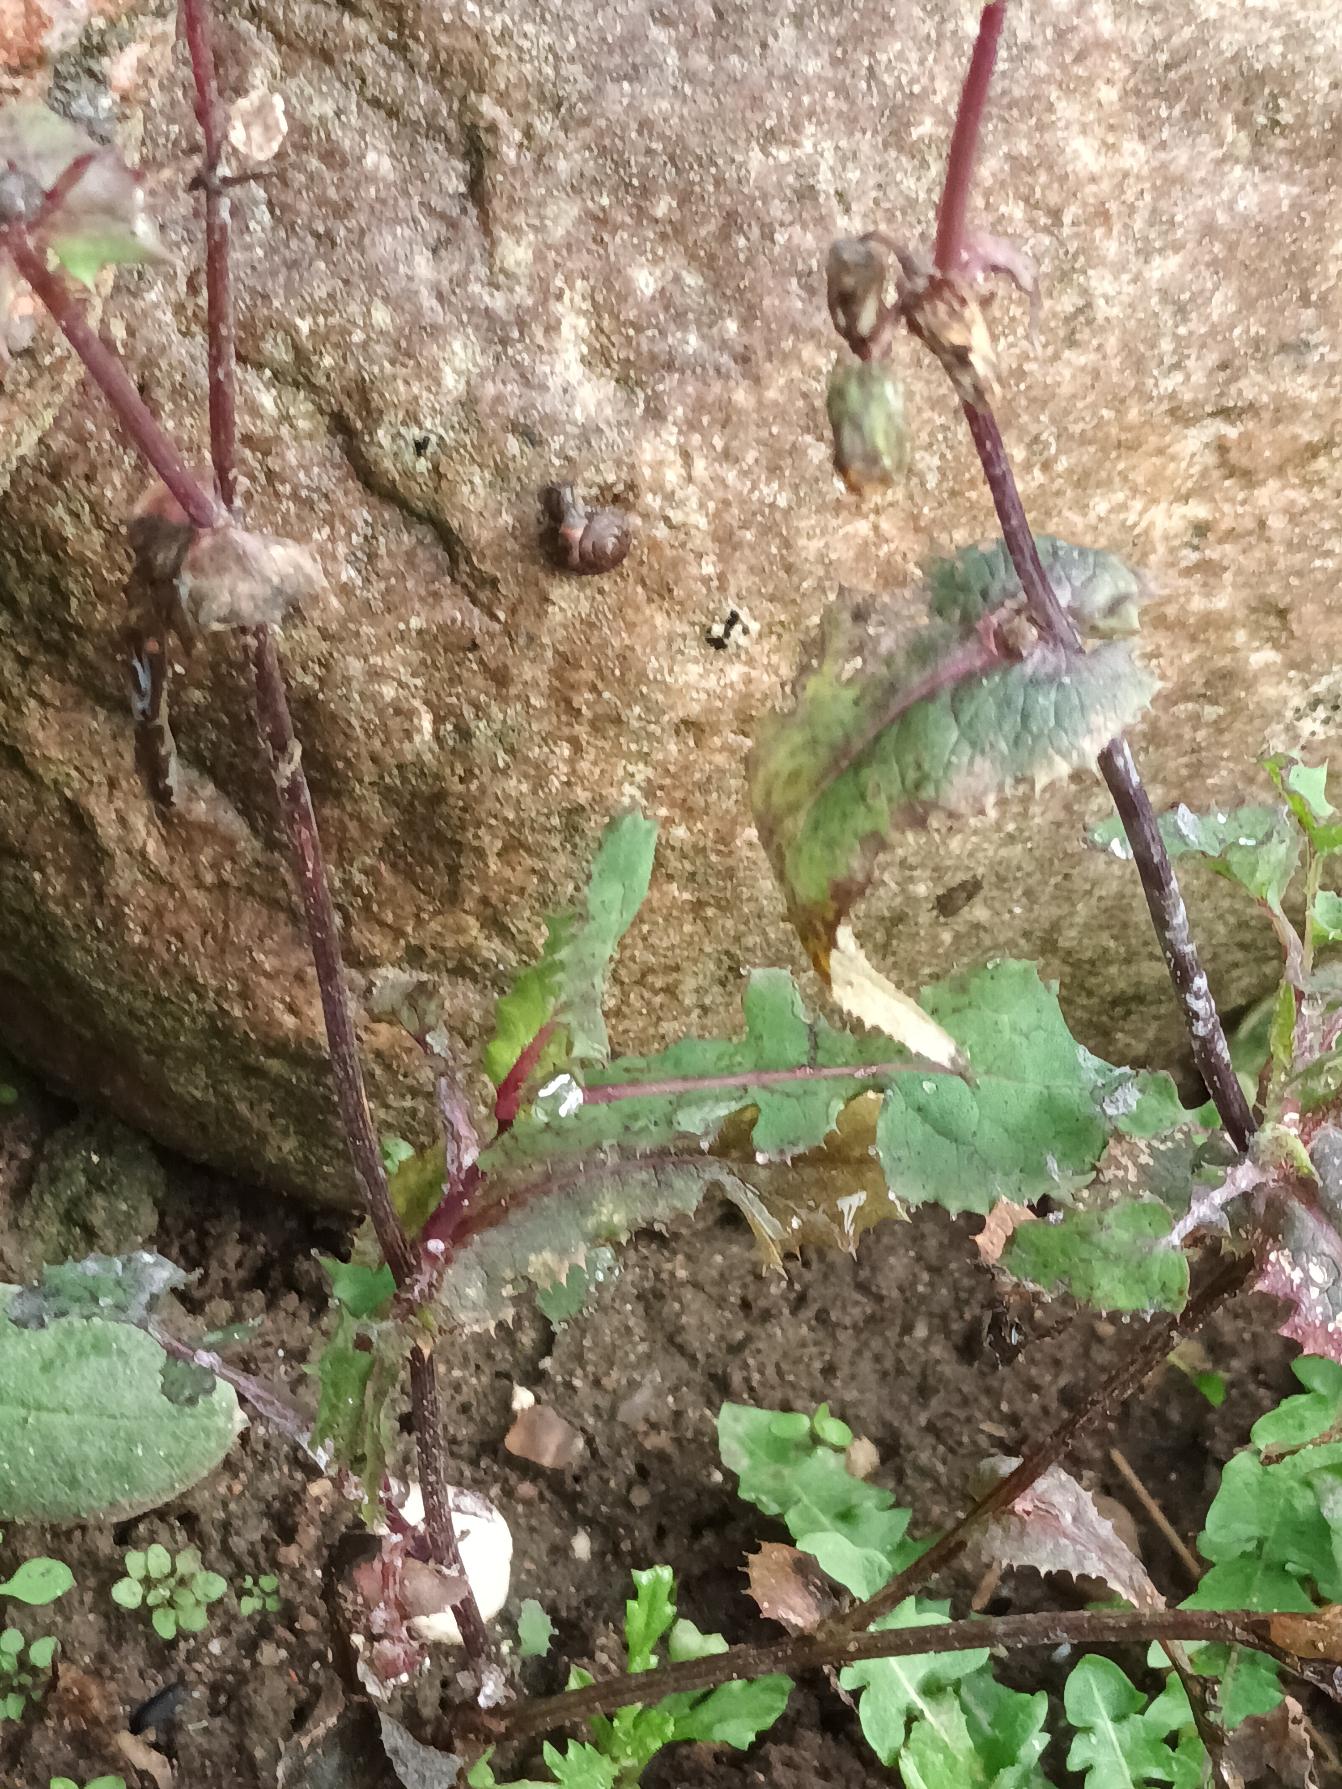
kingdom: Plantae
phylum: Tracheophyta
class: Magnoliopsida
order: Asterales
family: Asteraceae
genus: Sonchus
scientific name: Sonchus oleraceus
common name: Almindelig svinemælk
